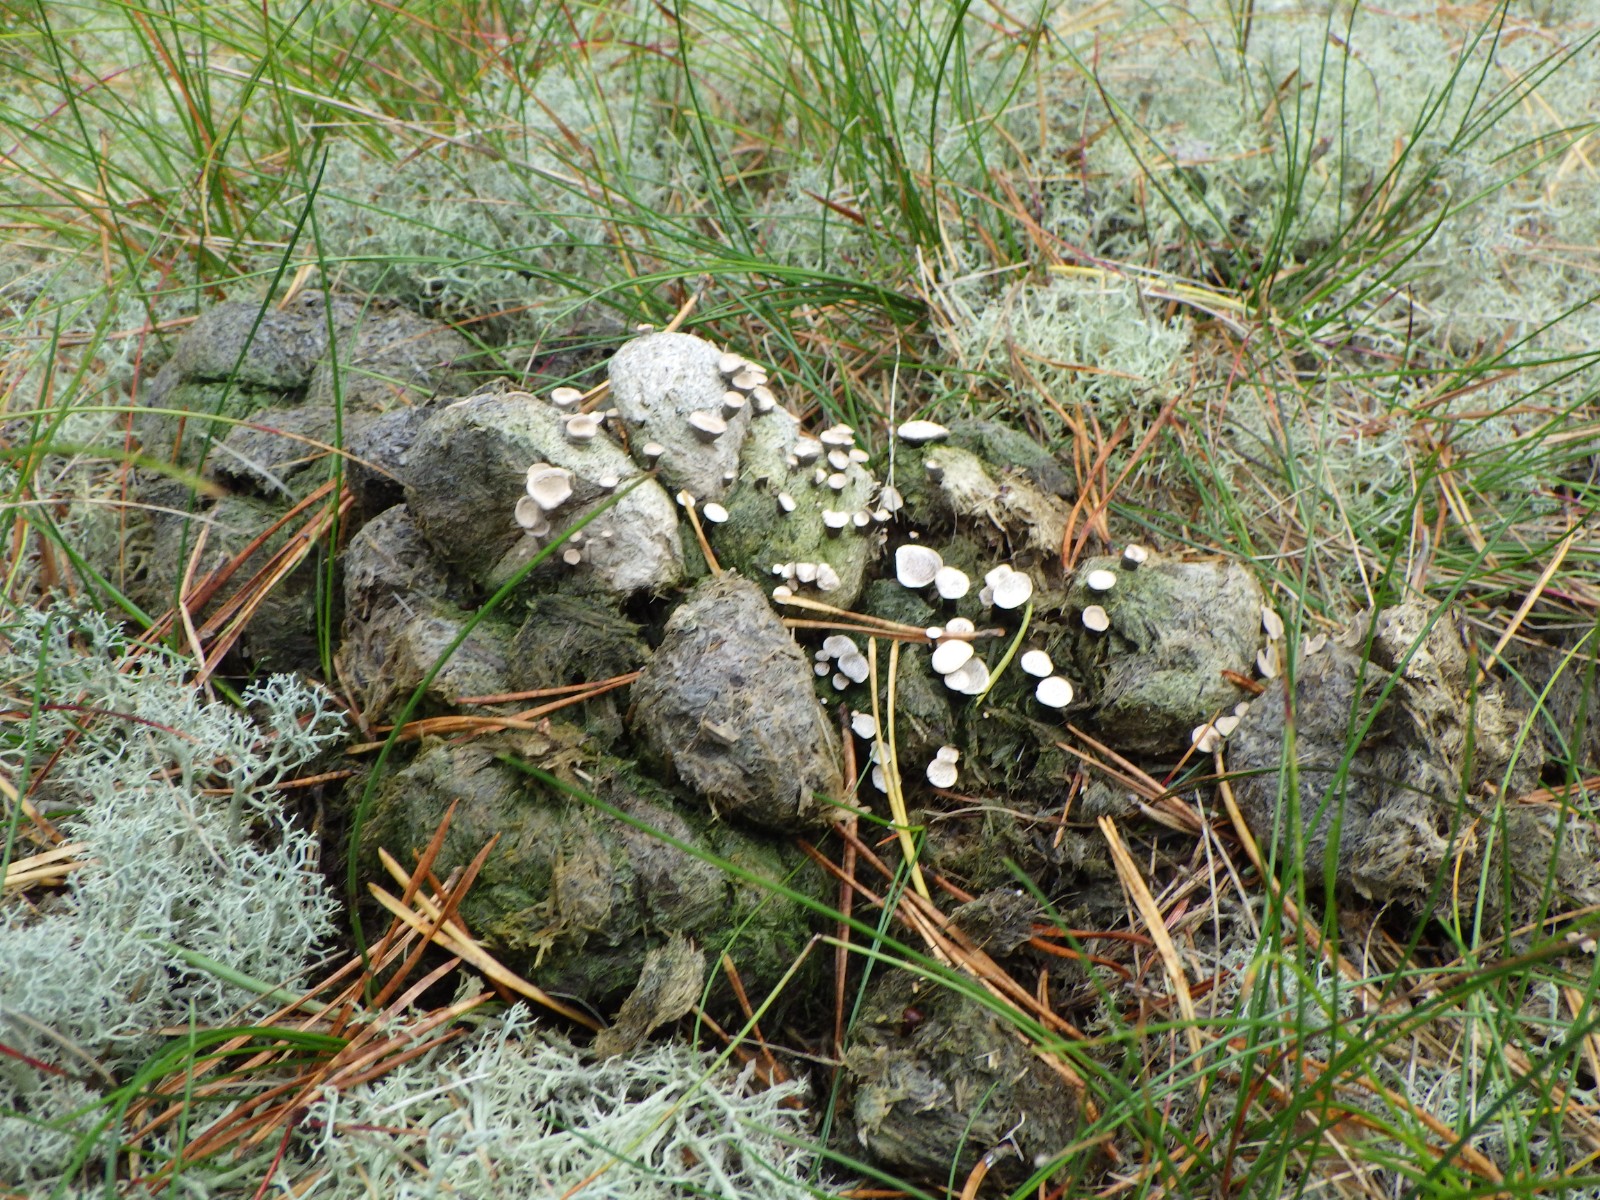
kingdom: Fungi
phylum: Ascomycota
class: Sordariomycetes
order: Xylariales
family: Xylariaceae
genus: Poronia
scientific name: Poronia punctata
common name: stor priksvamp
